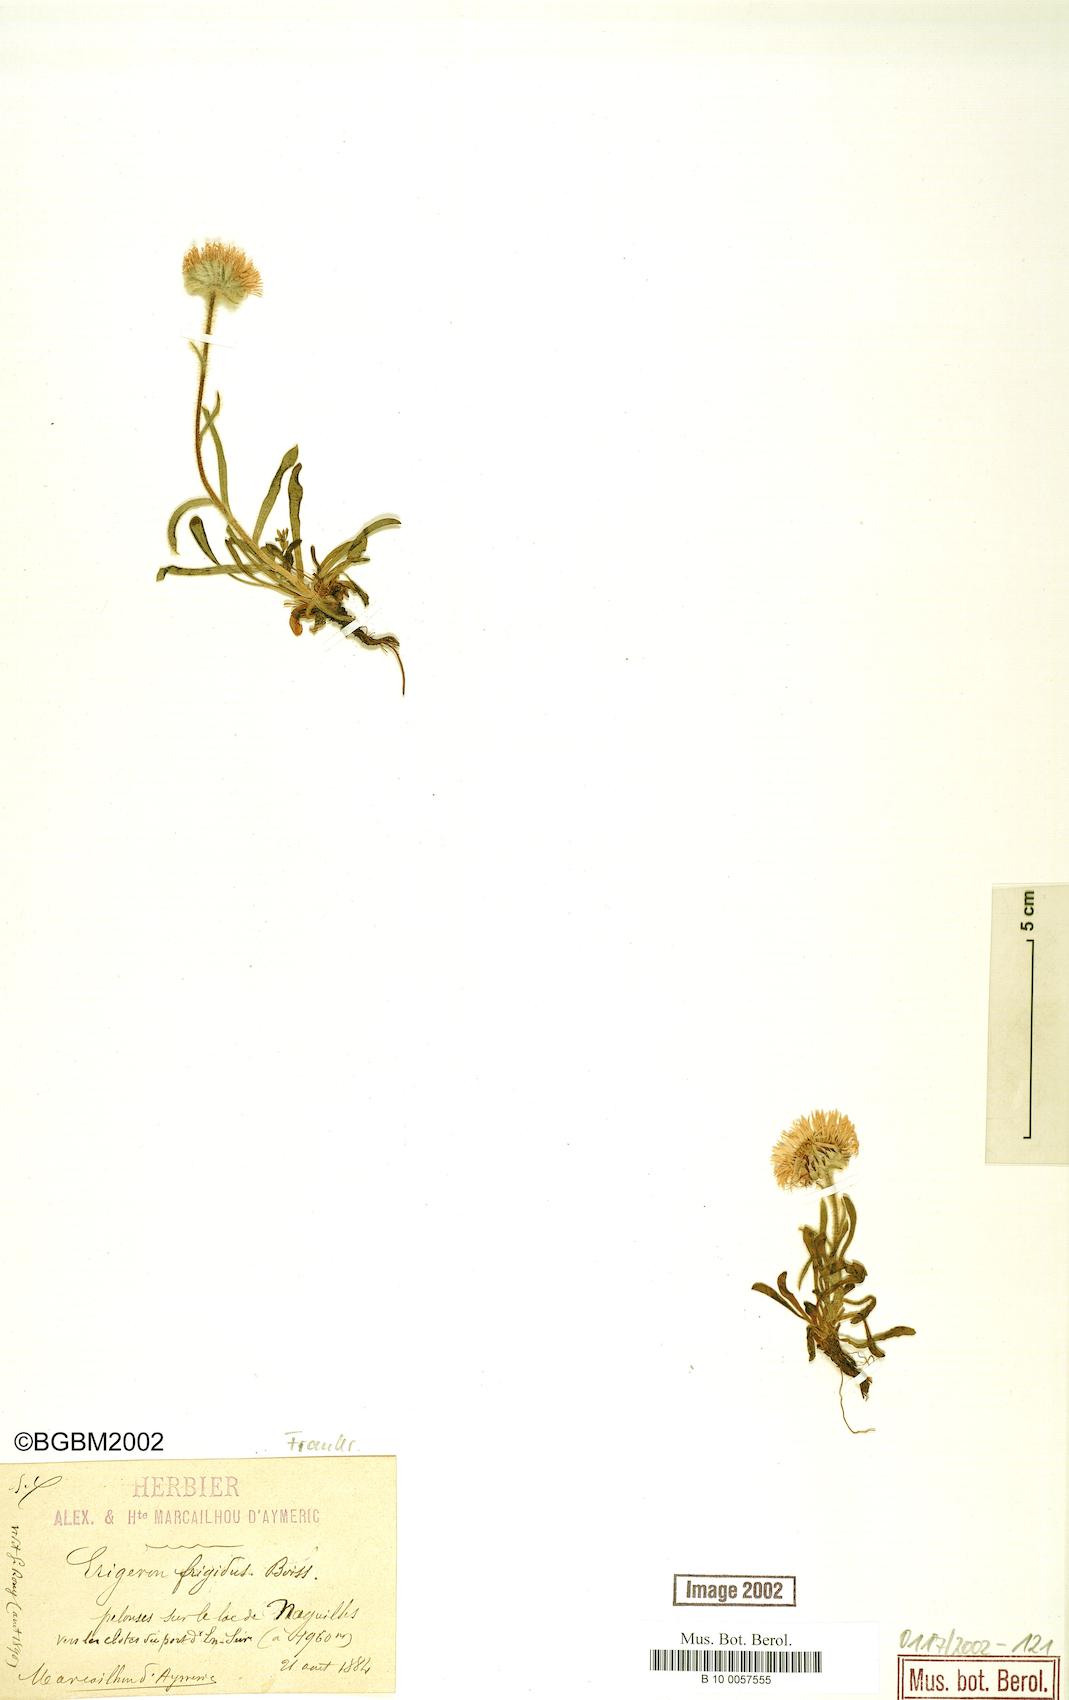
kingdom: Plantae
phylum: Tracheophyta
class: Magnoliopsida
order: Asterales
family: Asteraceae
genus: Erigeron
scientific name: Erigeron aragonensis
